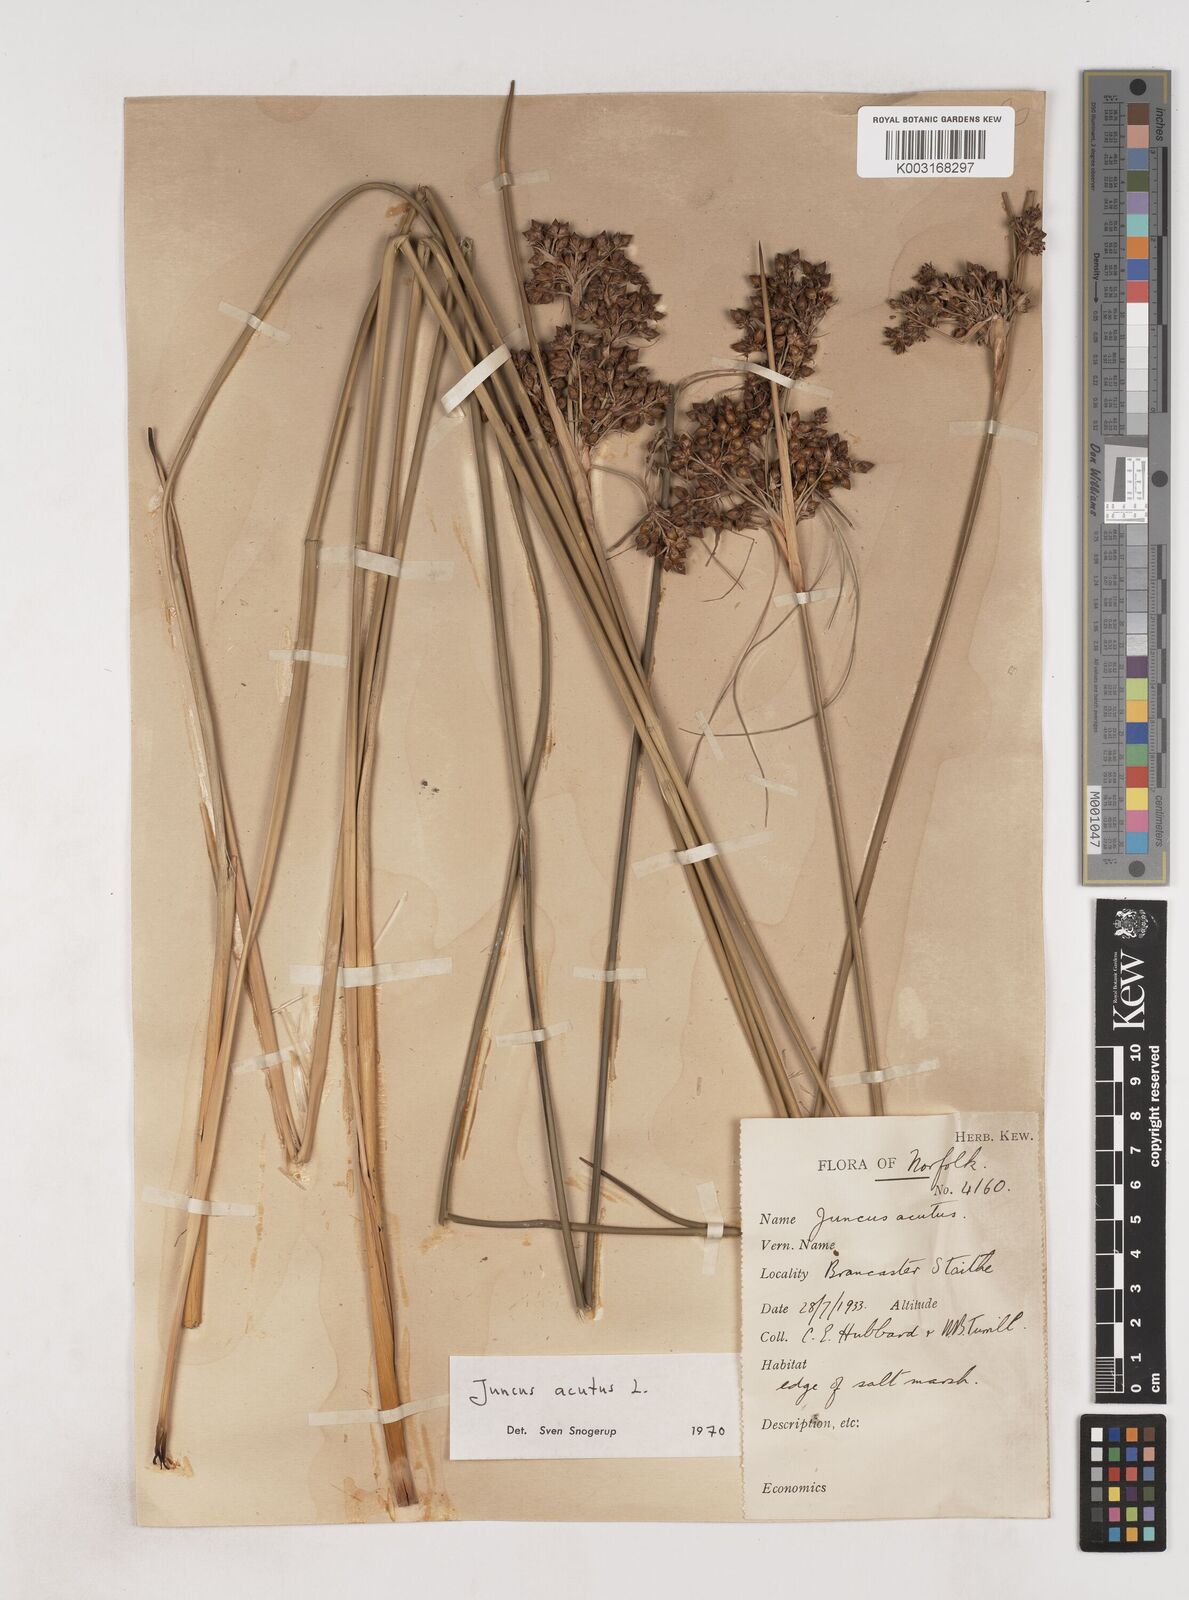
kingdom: Plantae
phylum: Tracheophyta
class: Liliopsida
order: Poales
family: Juncaceae
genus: Juncus
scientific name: Juncus acutus
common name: Sharp rush
